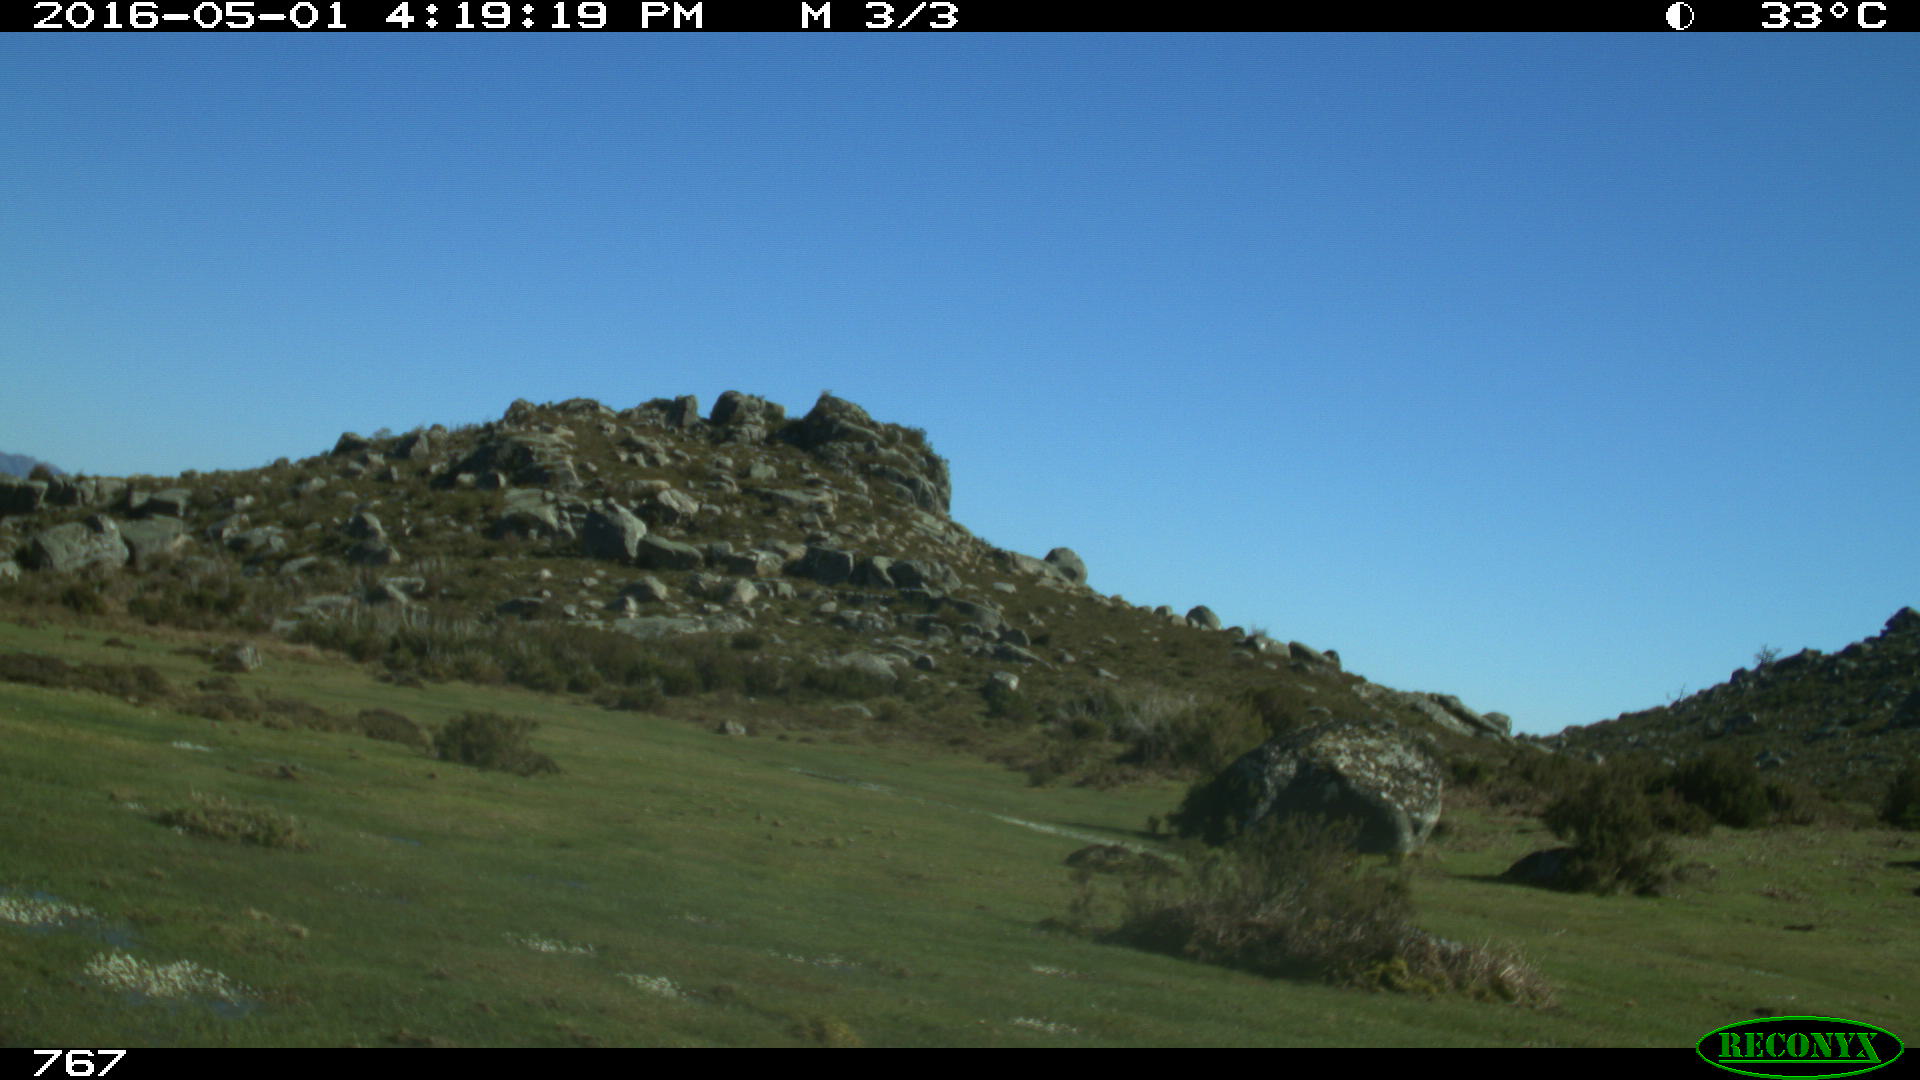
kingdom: Animalia
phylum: Chordata
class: Mammalia
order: Artiodactyla
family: Bovidae
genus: Bos
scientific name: Bos taurus
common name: Domesticated cattle
